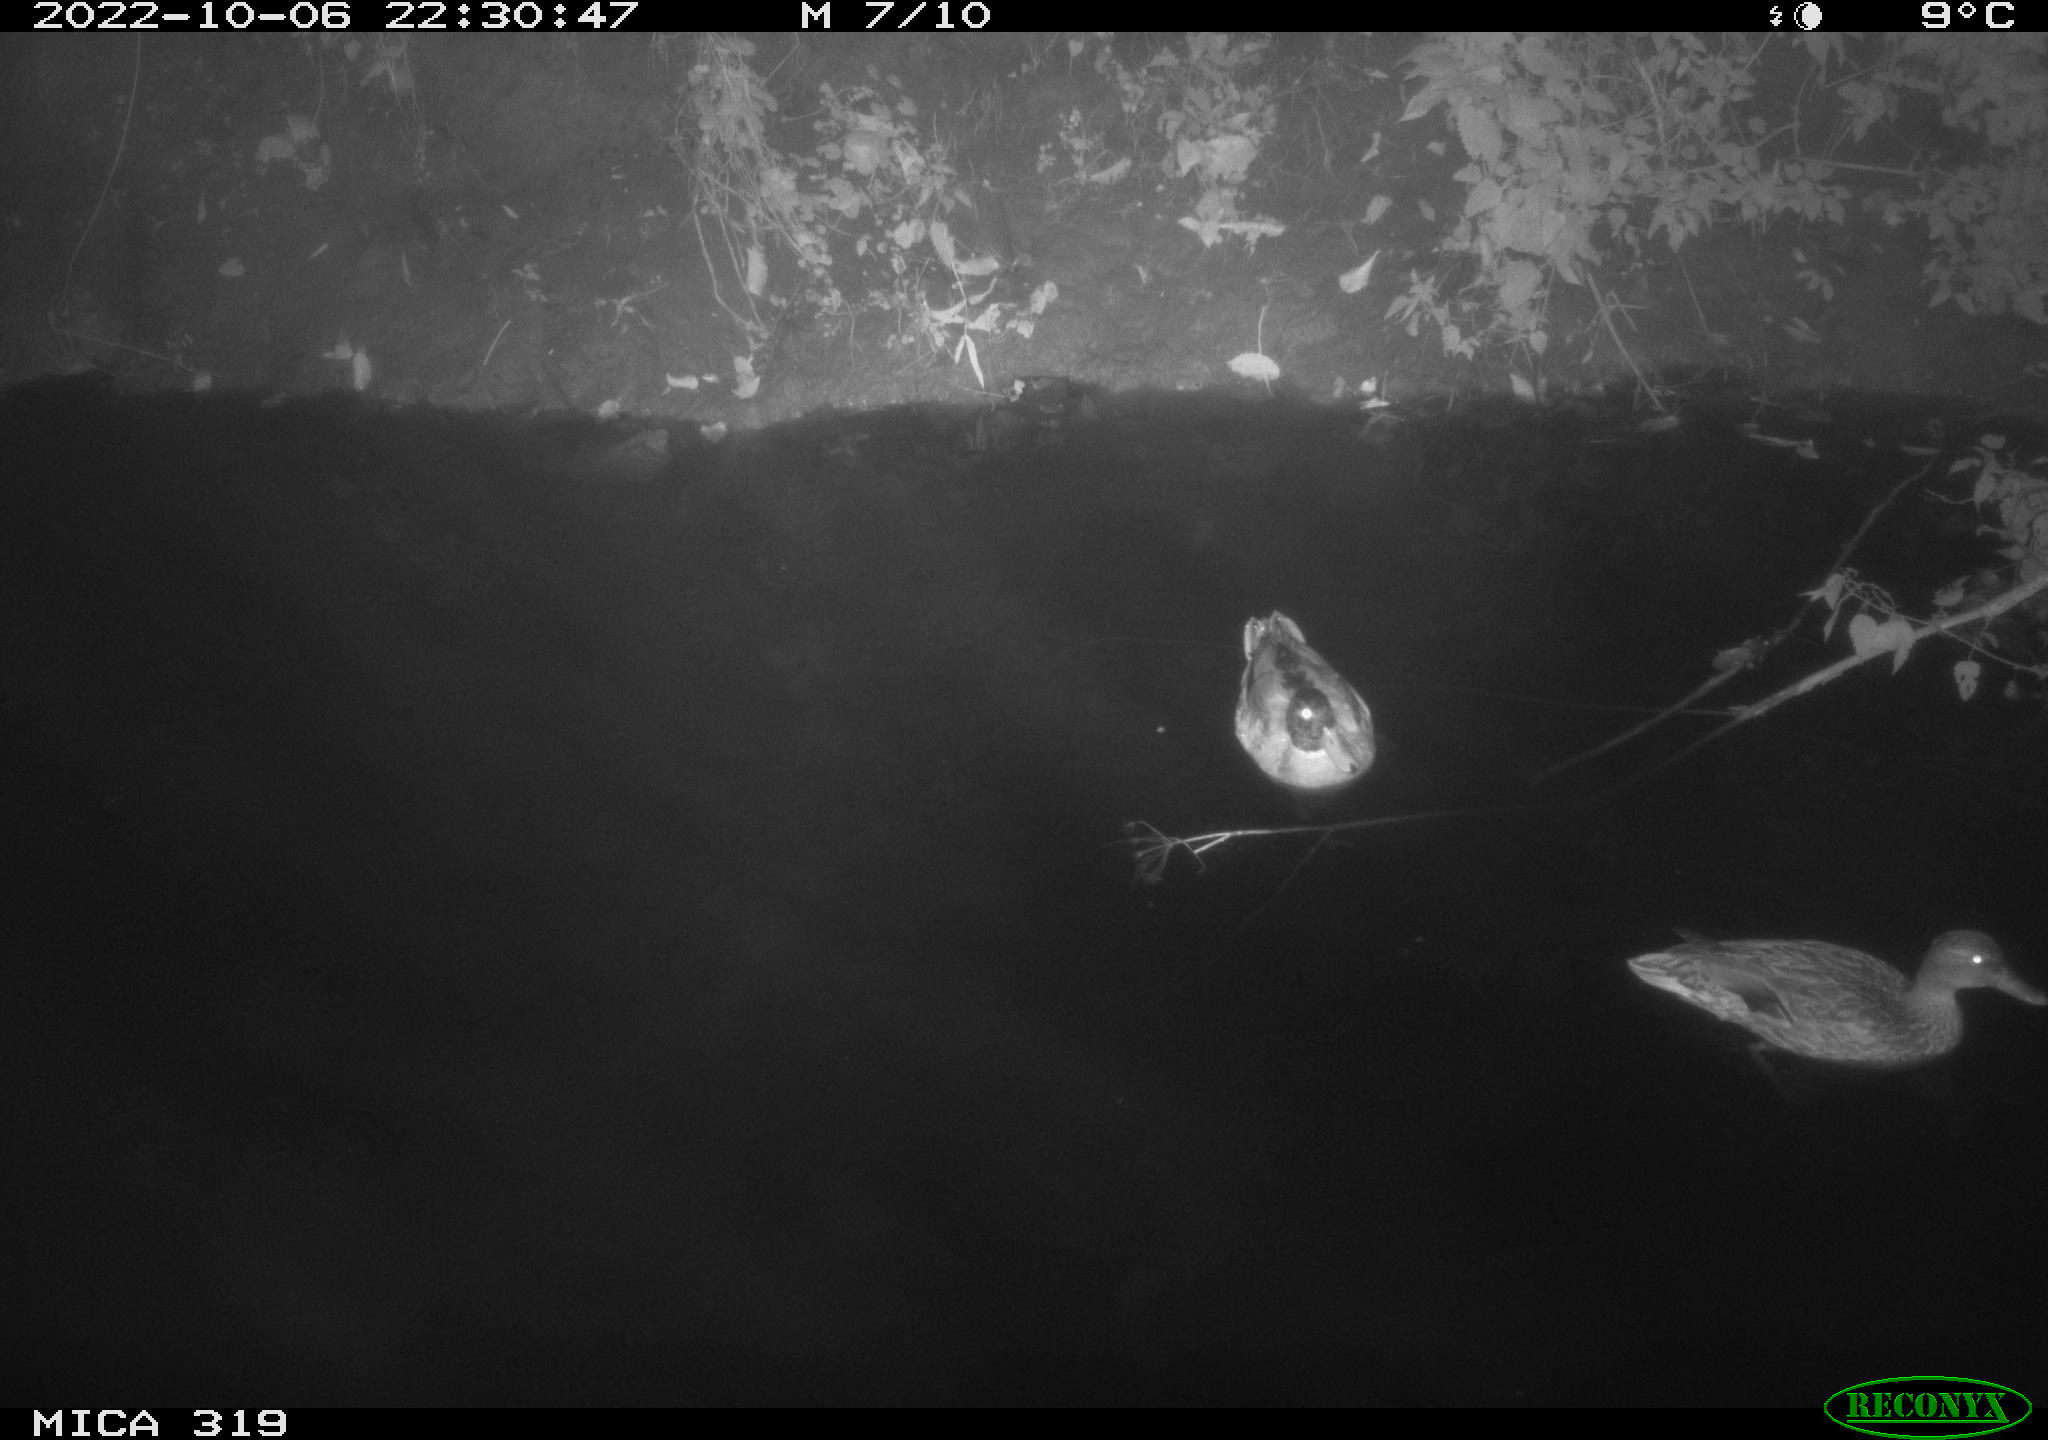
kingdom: Animalia
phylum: Chordata
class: Aves
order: Anseriformes
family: Anatidae
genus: Anas
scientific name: Anas
